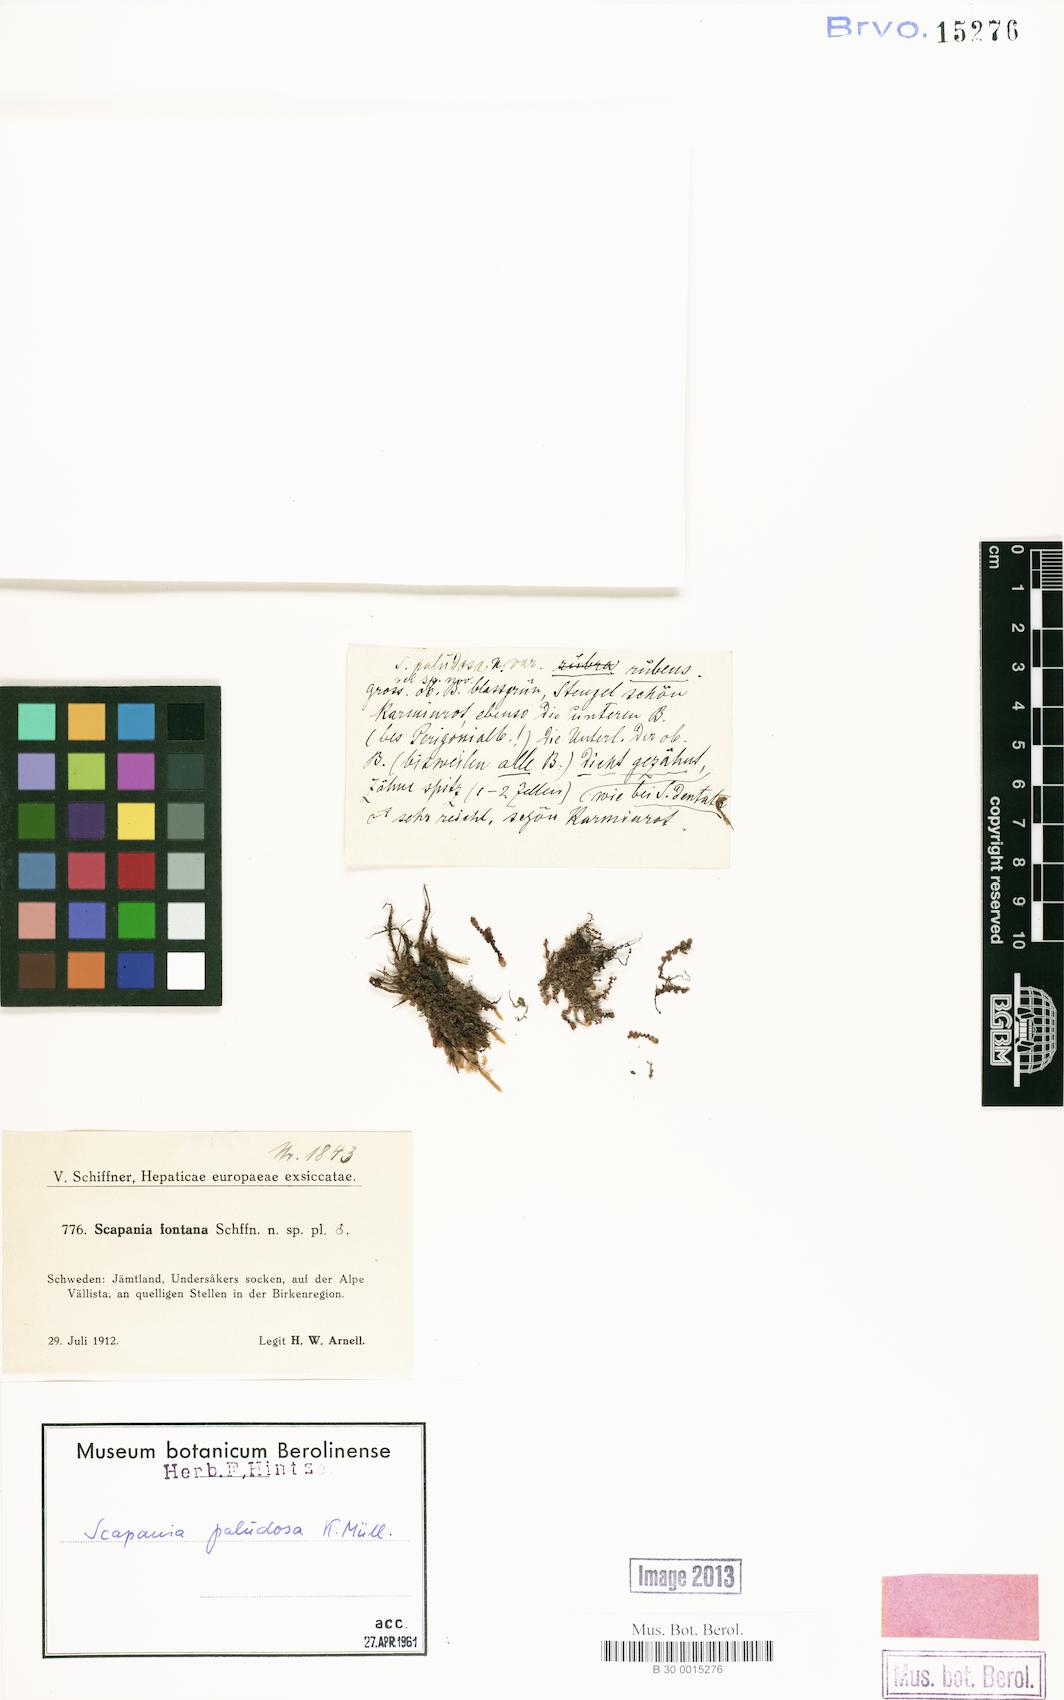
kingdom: Plantae
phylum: Marchantiophyta
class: Jungermanniopsida
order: Jungermanniales
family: Scapaniaceae
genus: Scapania
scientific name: Scapania paludosa
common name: Floppy earwort
